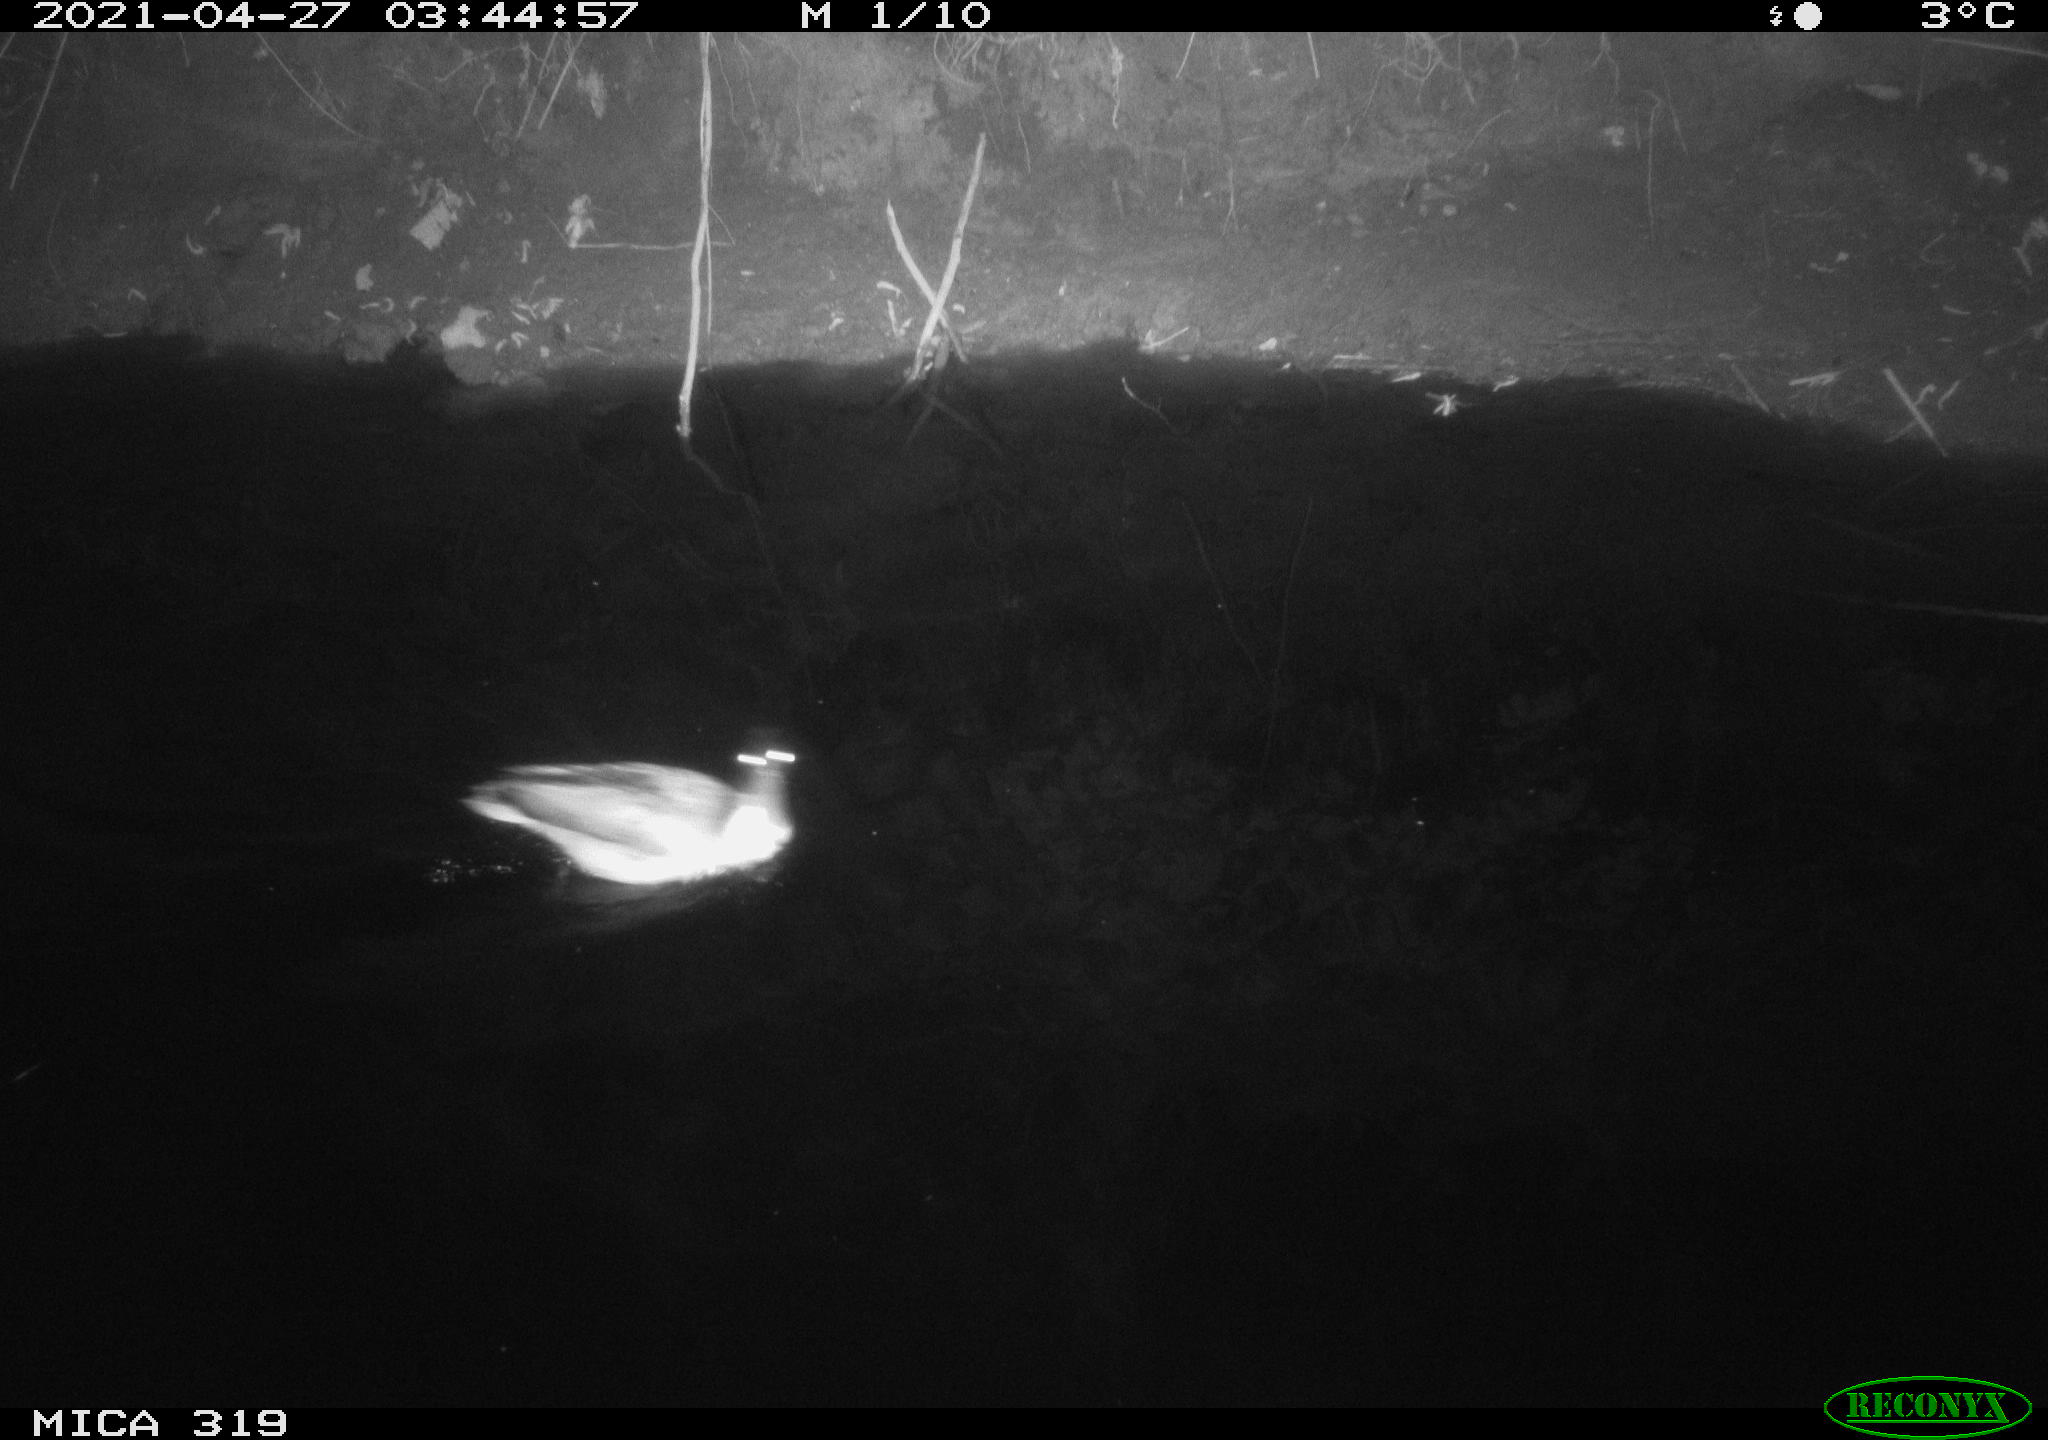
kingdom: Animalia
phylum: Chordata
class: Aves
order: Anseriformes
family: Anatidae
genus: Anas
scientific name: Anas platyrhynchos
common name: Mallard
